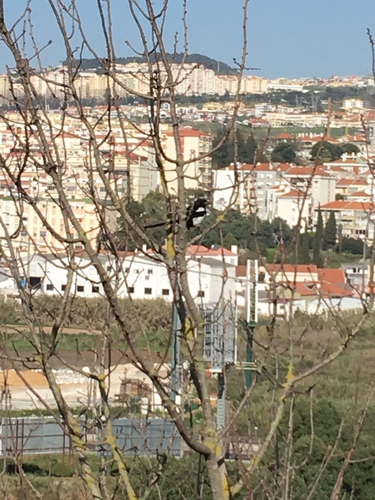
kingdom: Animalia
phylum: Chordata
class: Aves
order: Passeriformes
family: Corvidae
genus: Pica
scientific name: Pica pica
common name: Eurasian magpie
